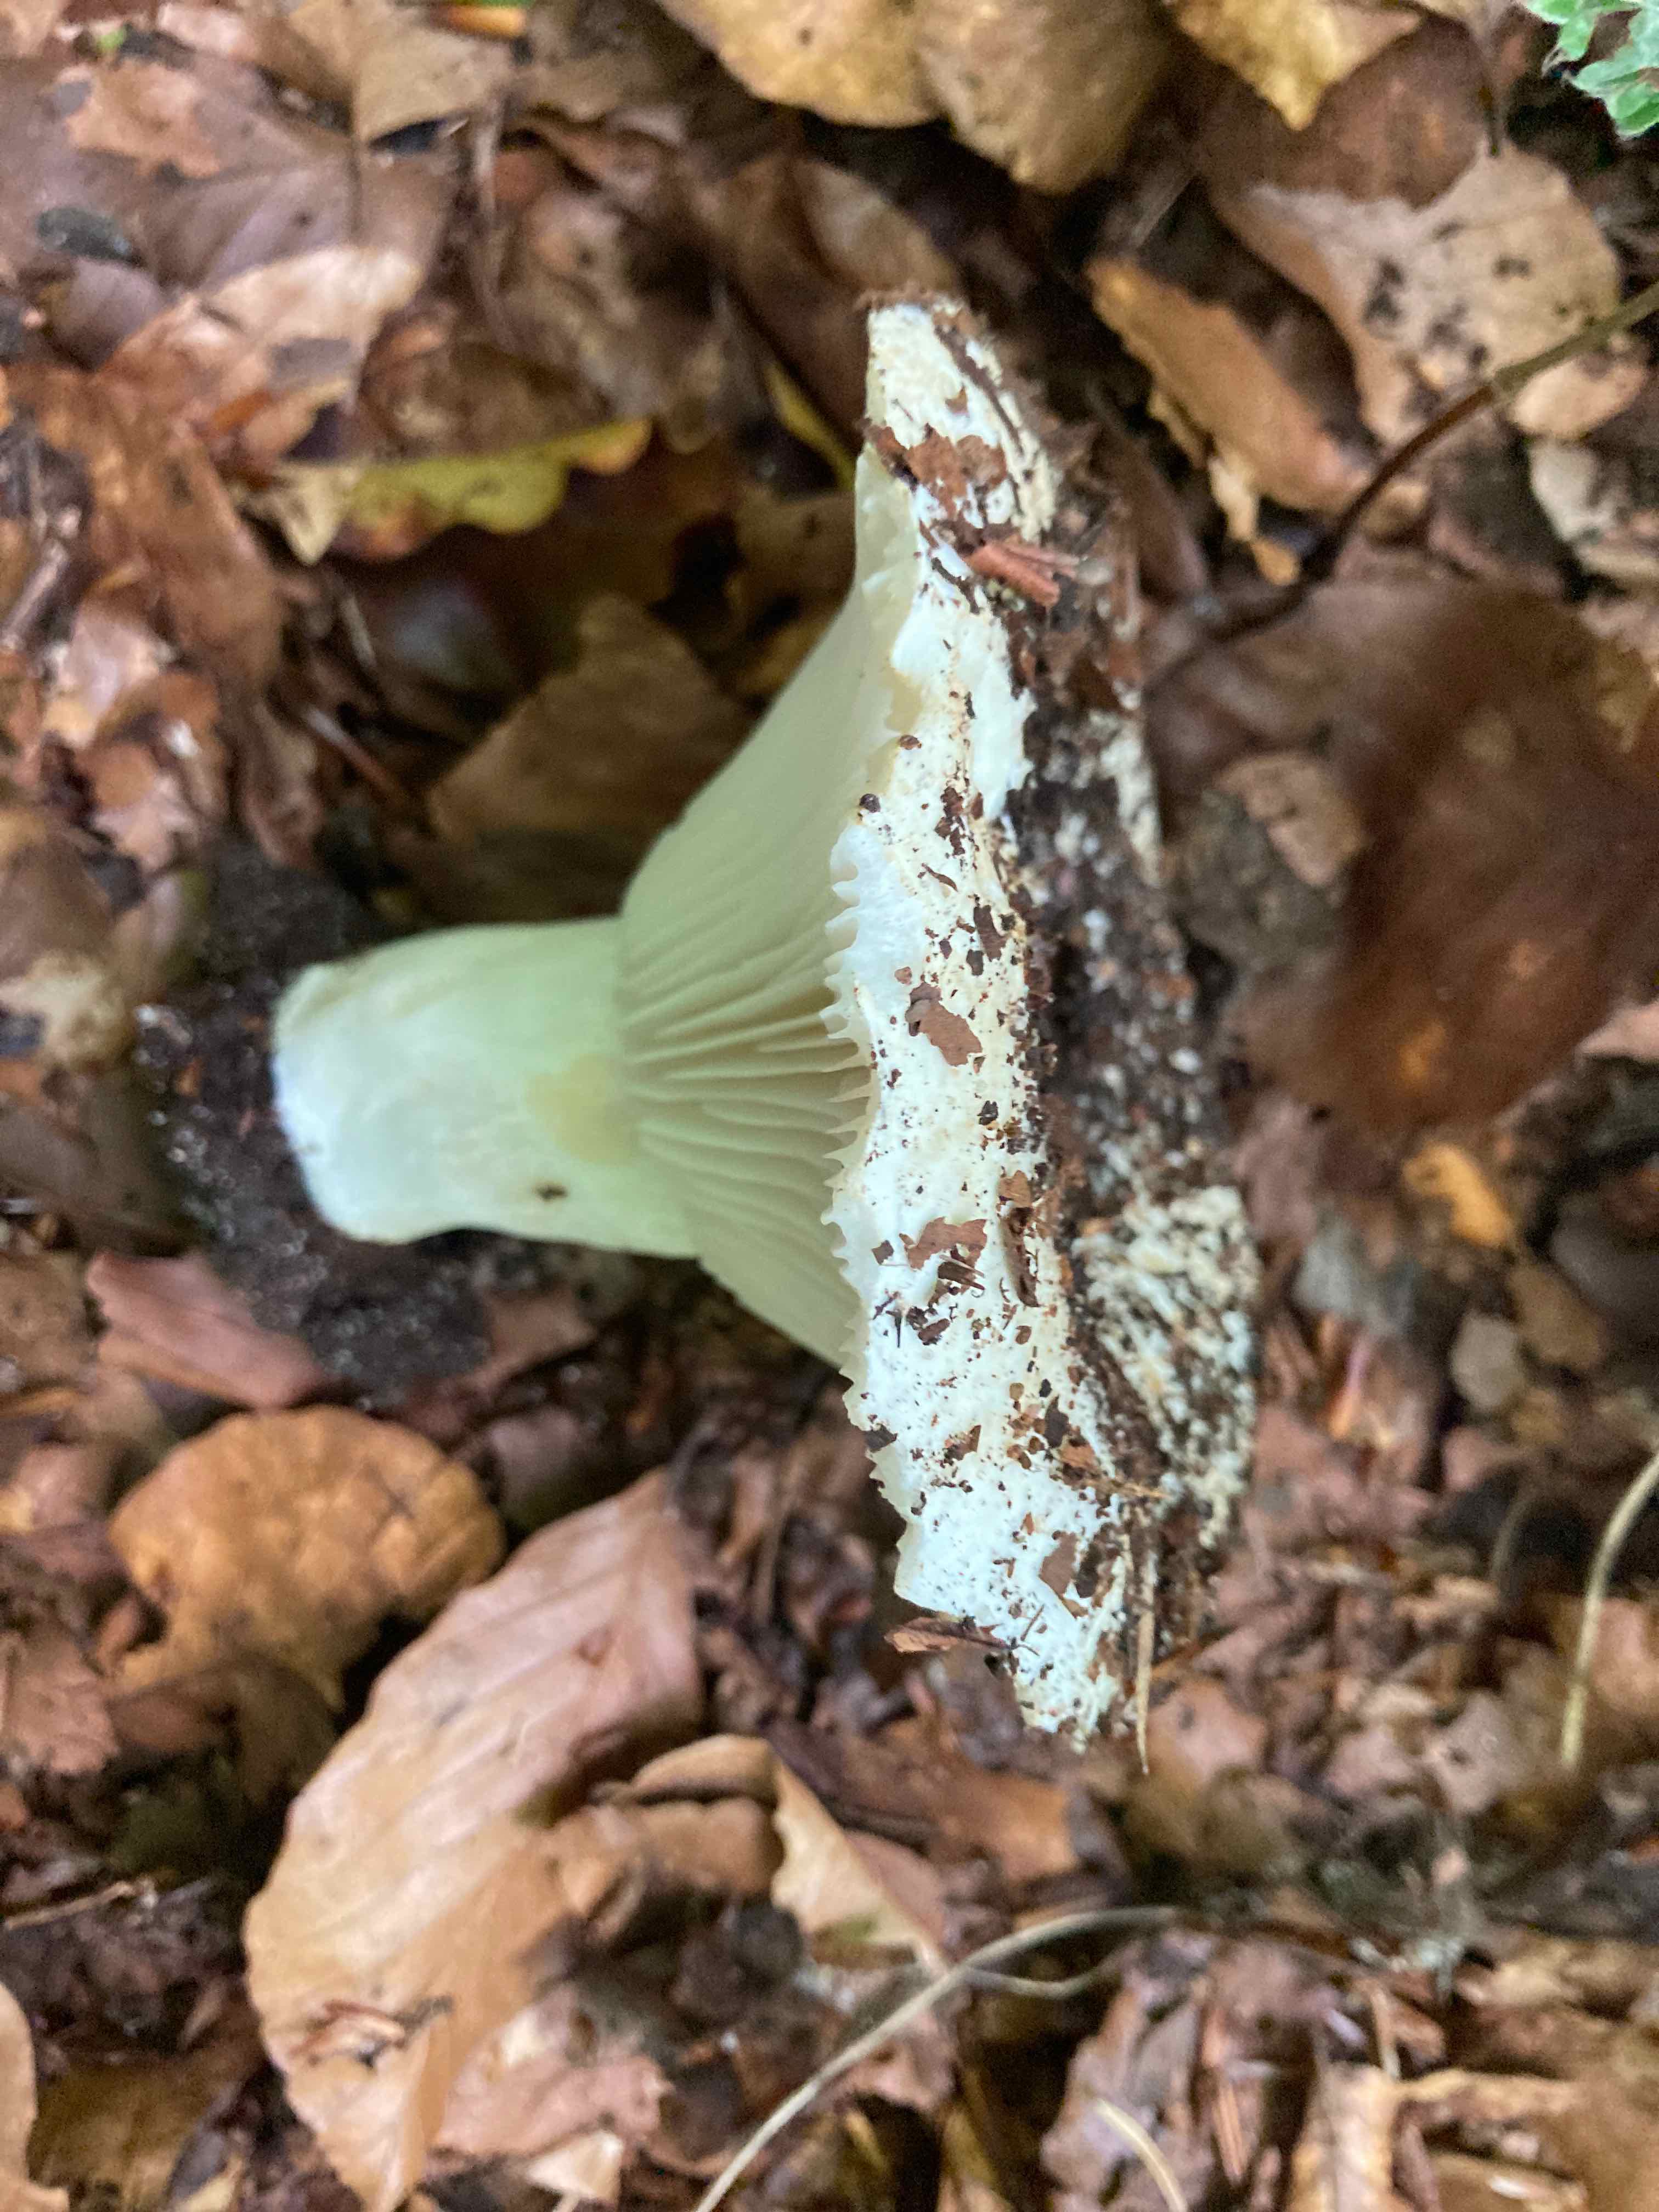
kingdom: Fungi
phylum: Basidiomycota
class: Agaricomycetes
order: Russulales
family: Russulaceae
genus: Russula
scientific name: Russula delica
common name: almindelig tragt-skørhat
